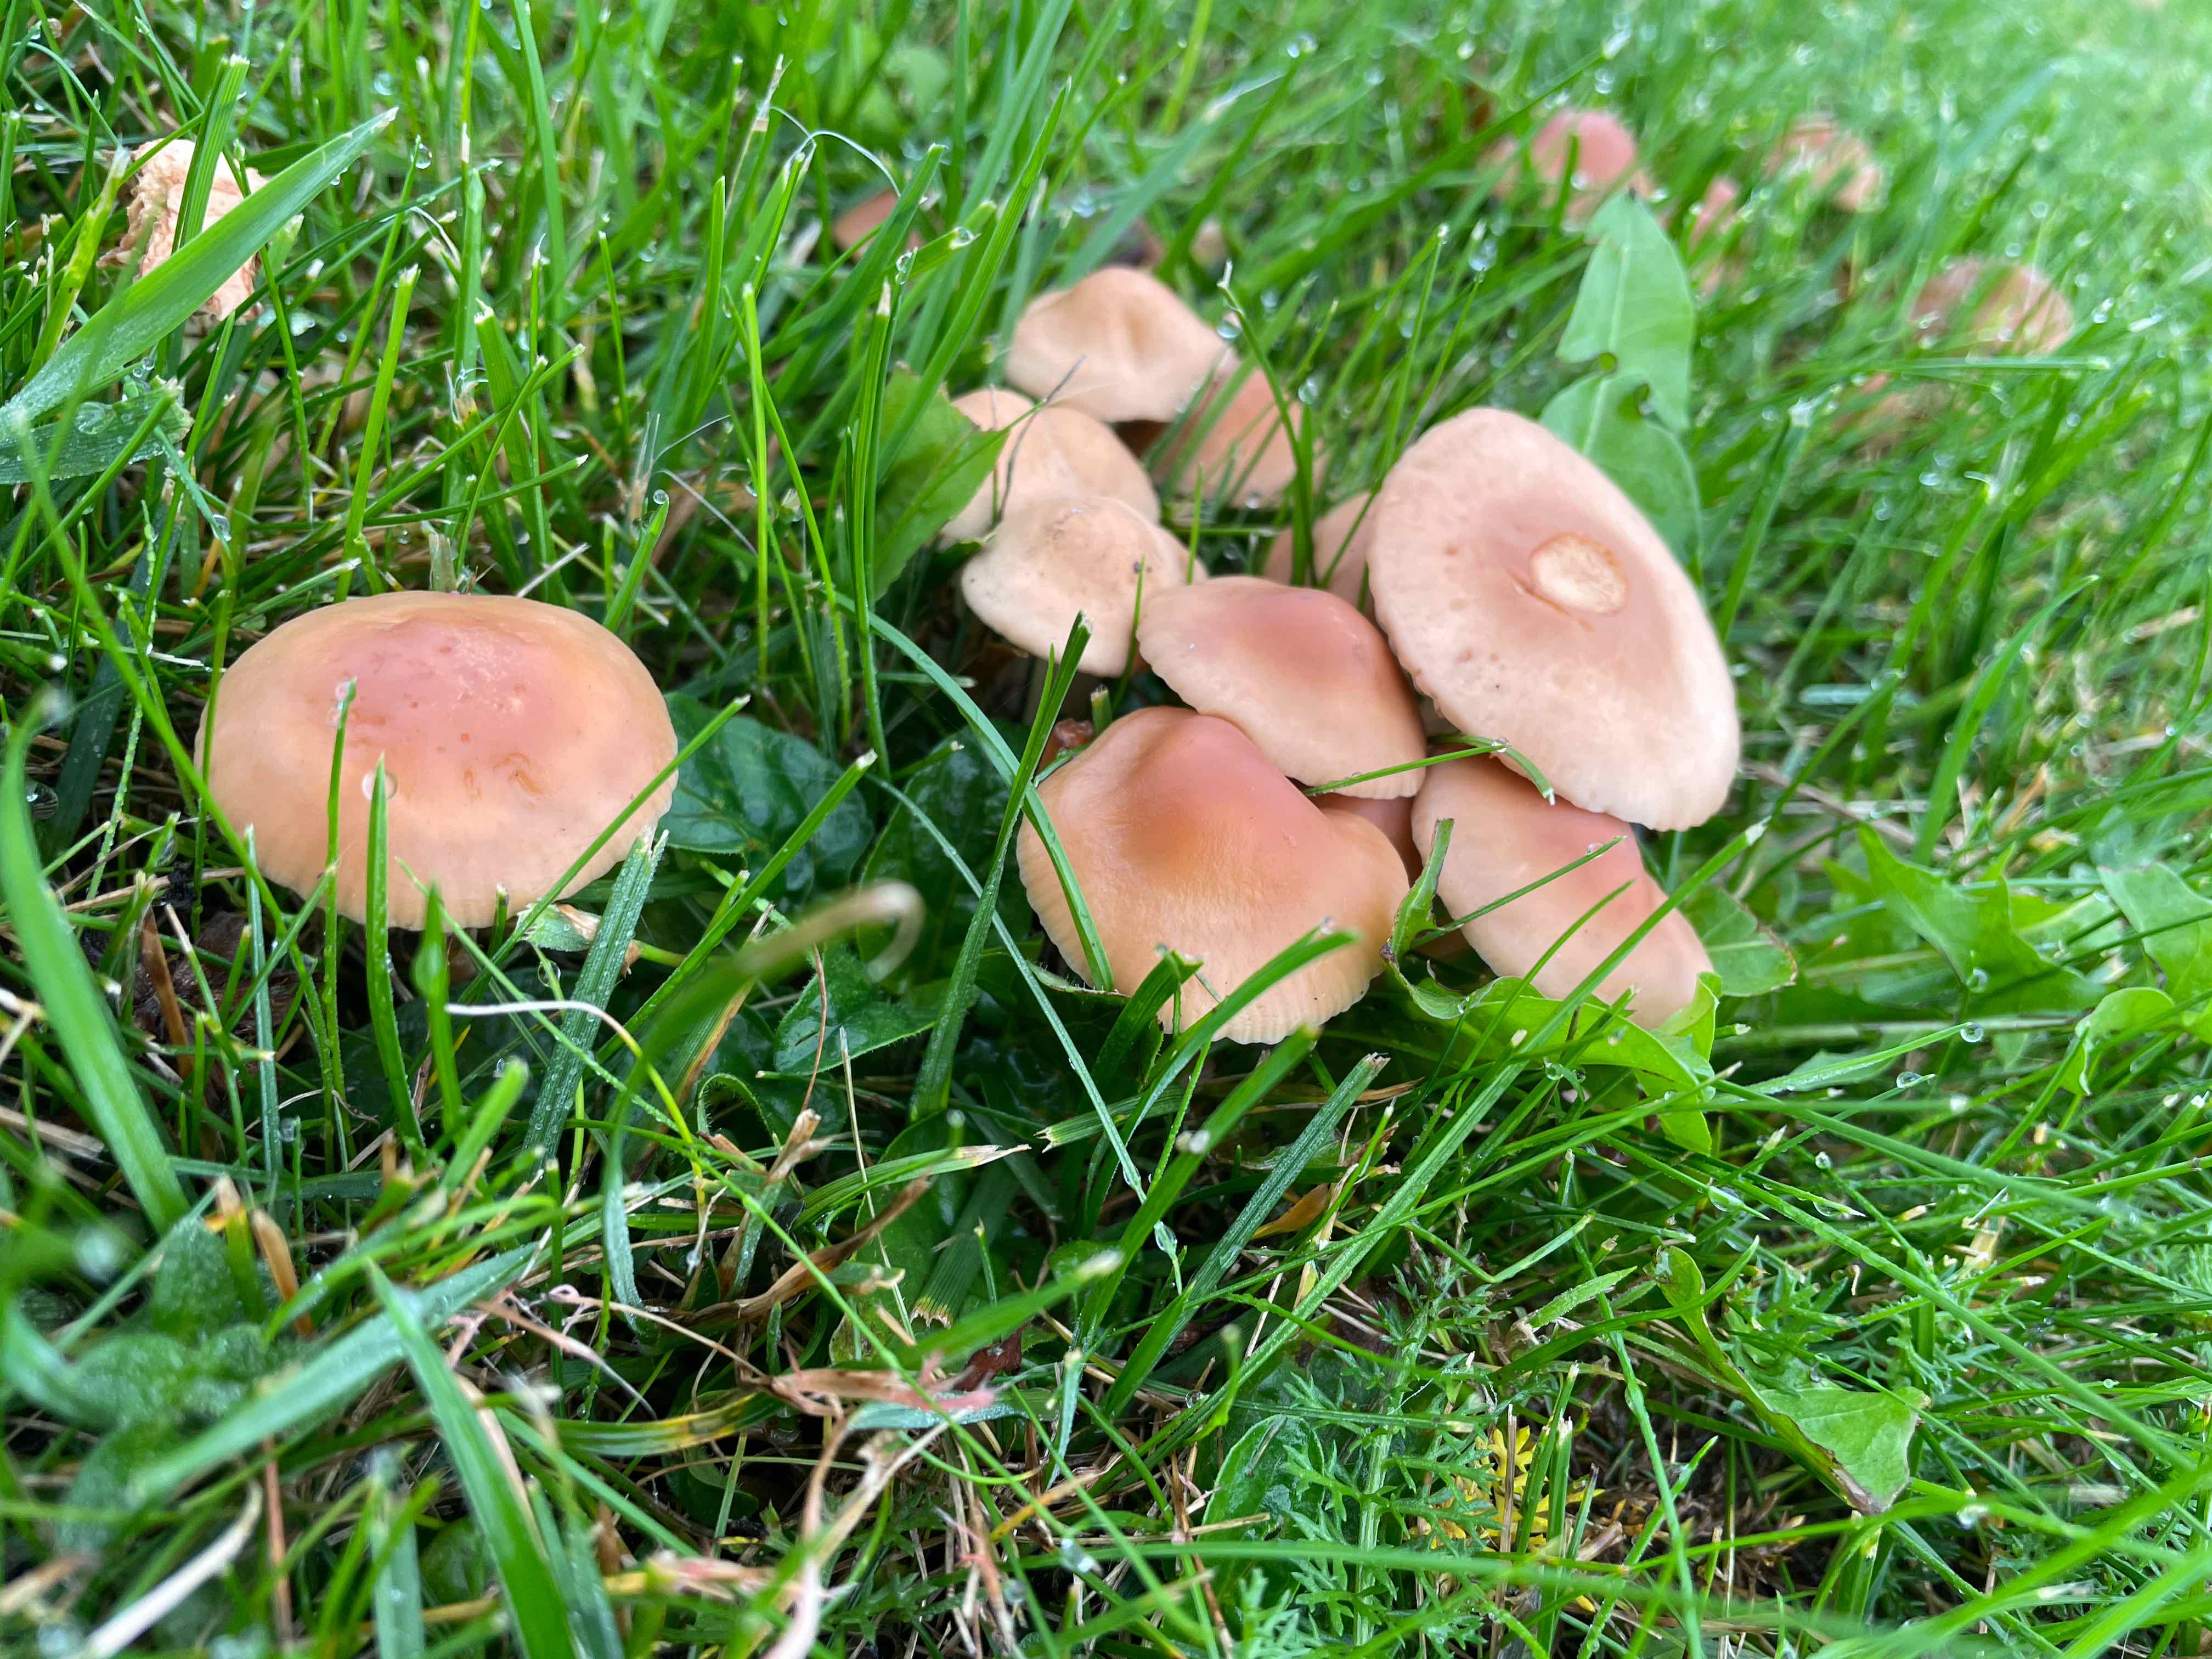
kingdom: Fungi
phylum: Basidiomycota
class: Agaricomycetes
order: Agaricales
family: Marasmiaceae
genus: Marasmius
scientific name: Marasmius oreades
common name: elledans-bruskhat
